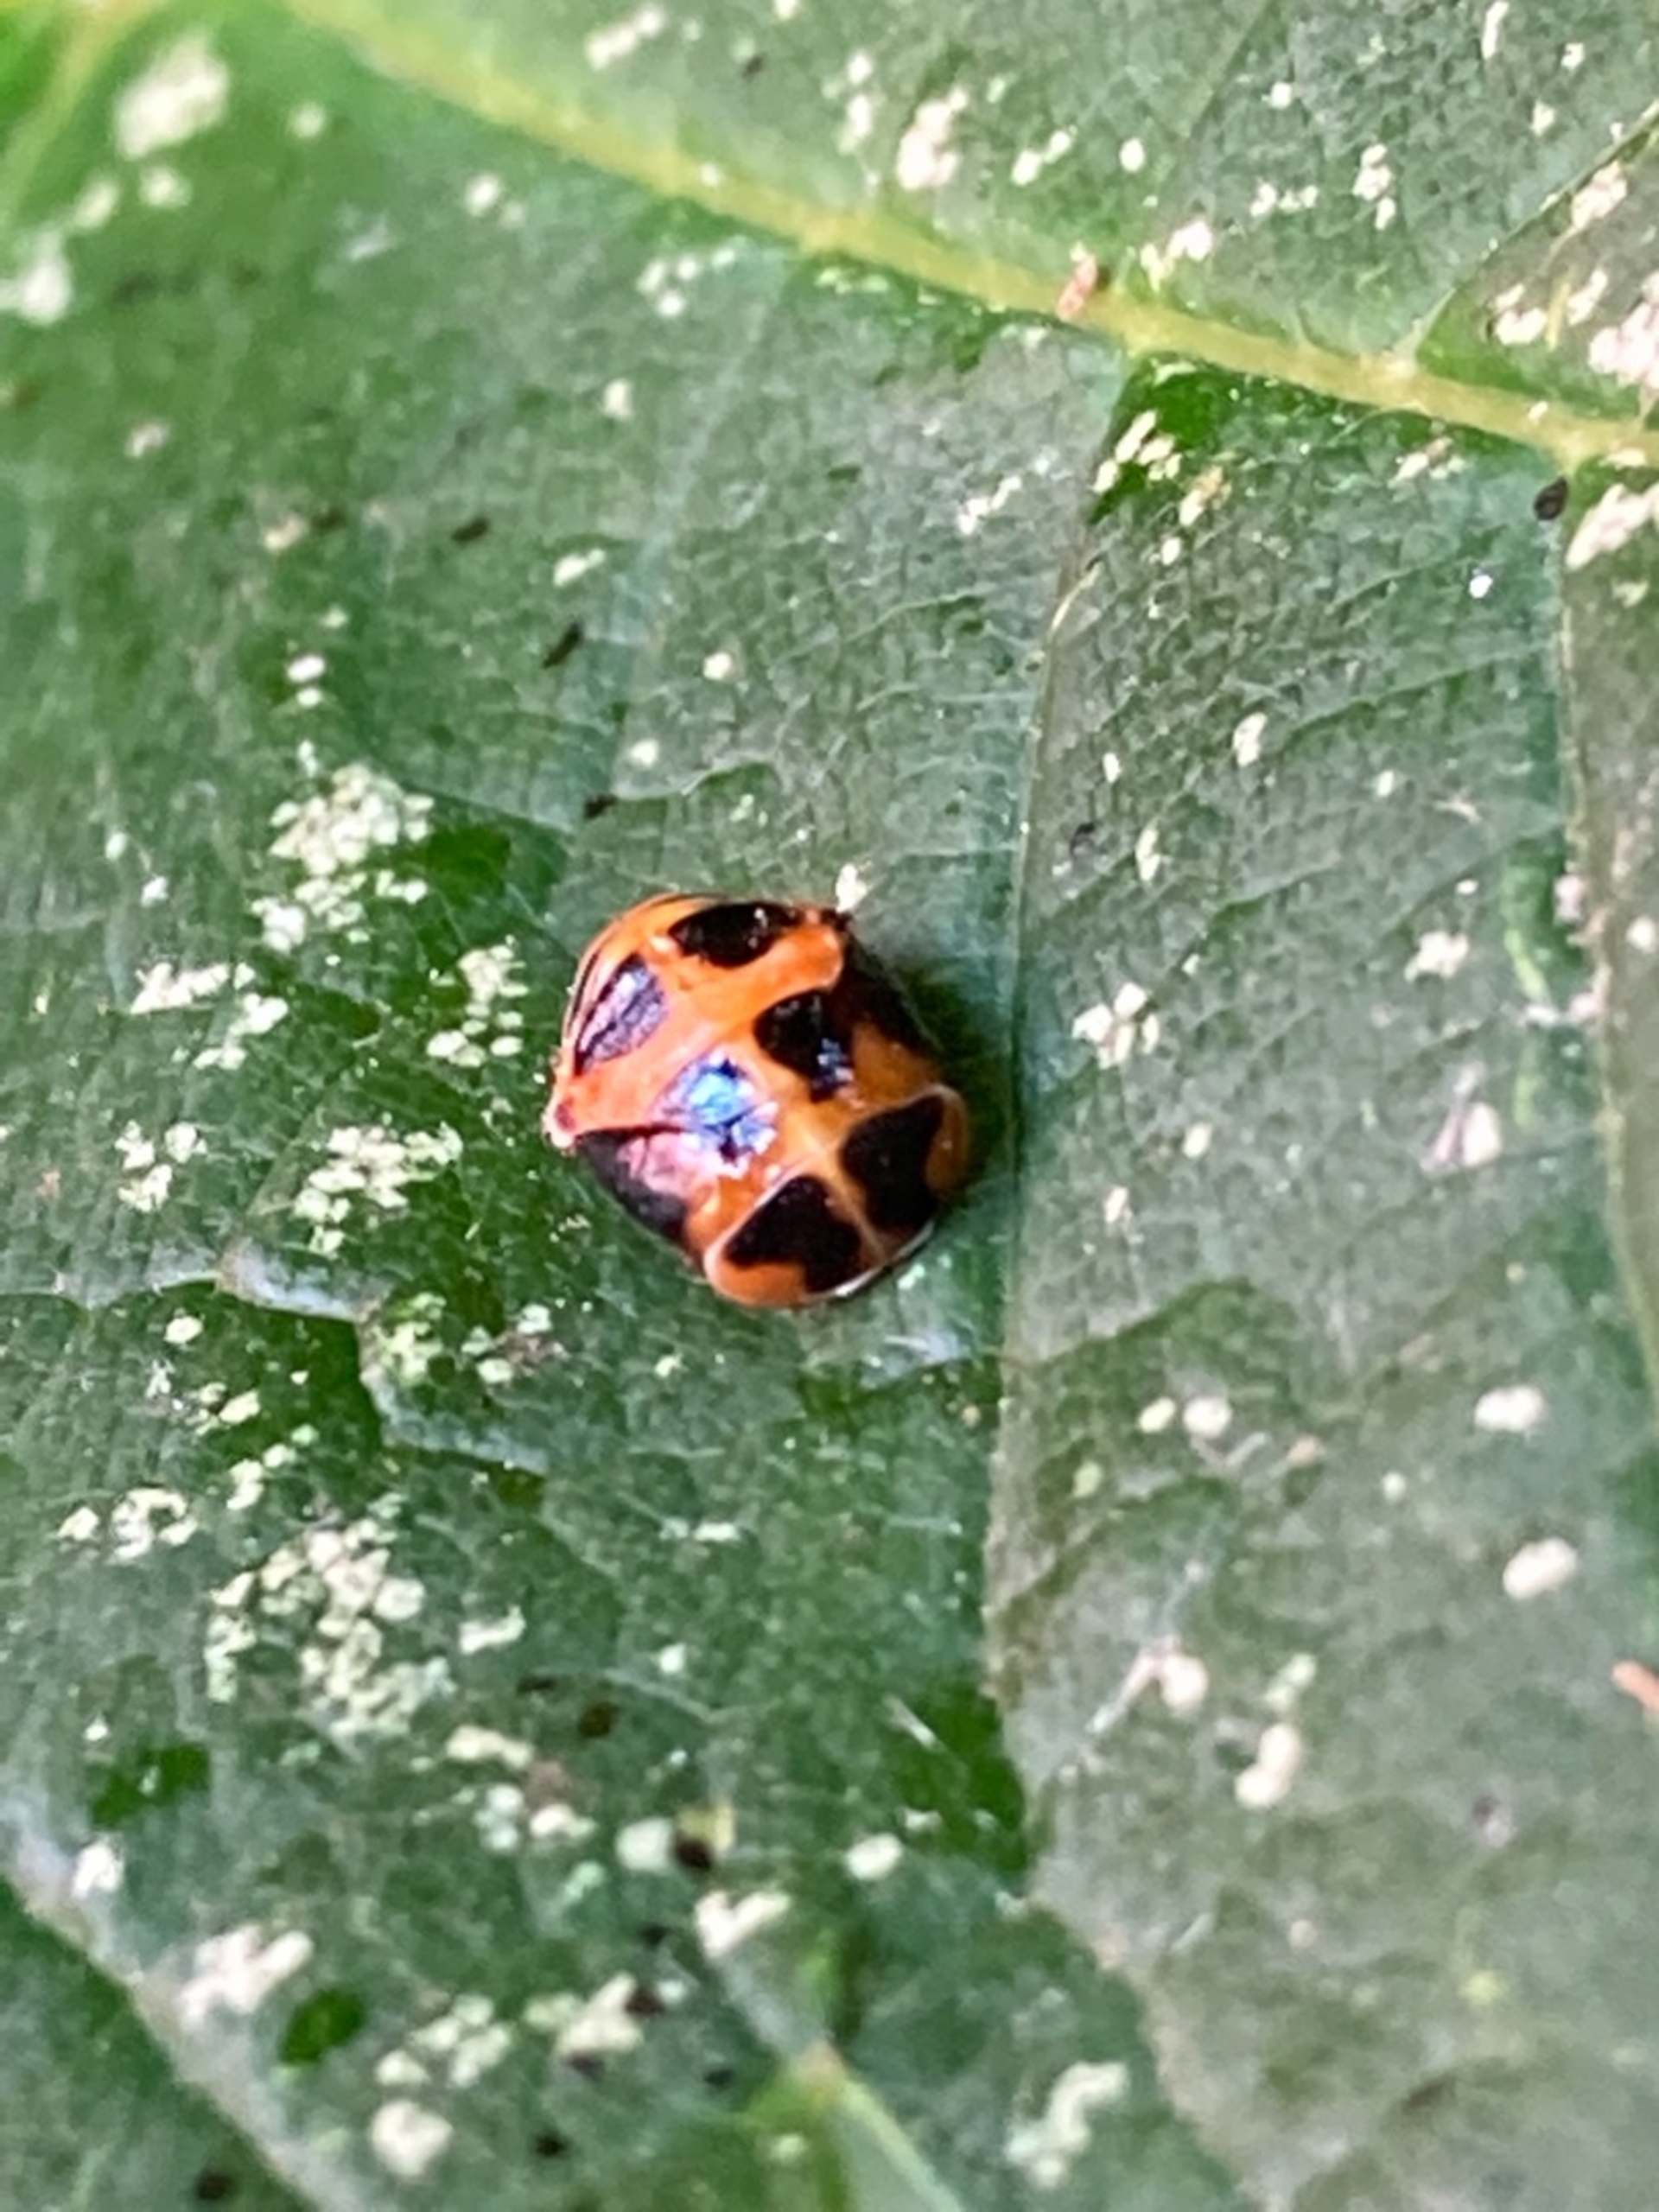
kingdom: Animalia
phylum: Arthropoda
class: Insecta
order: Coleoptera
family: Coccinellidae
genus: Harmonia
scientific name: Harmonia axyridis
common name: Harlekinmariehøne
